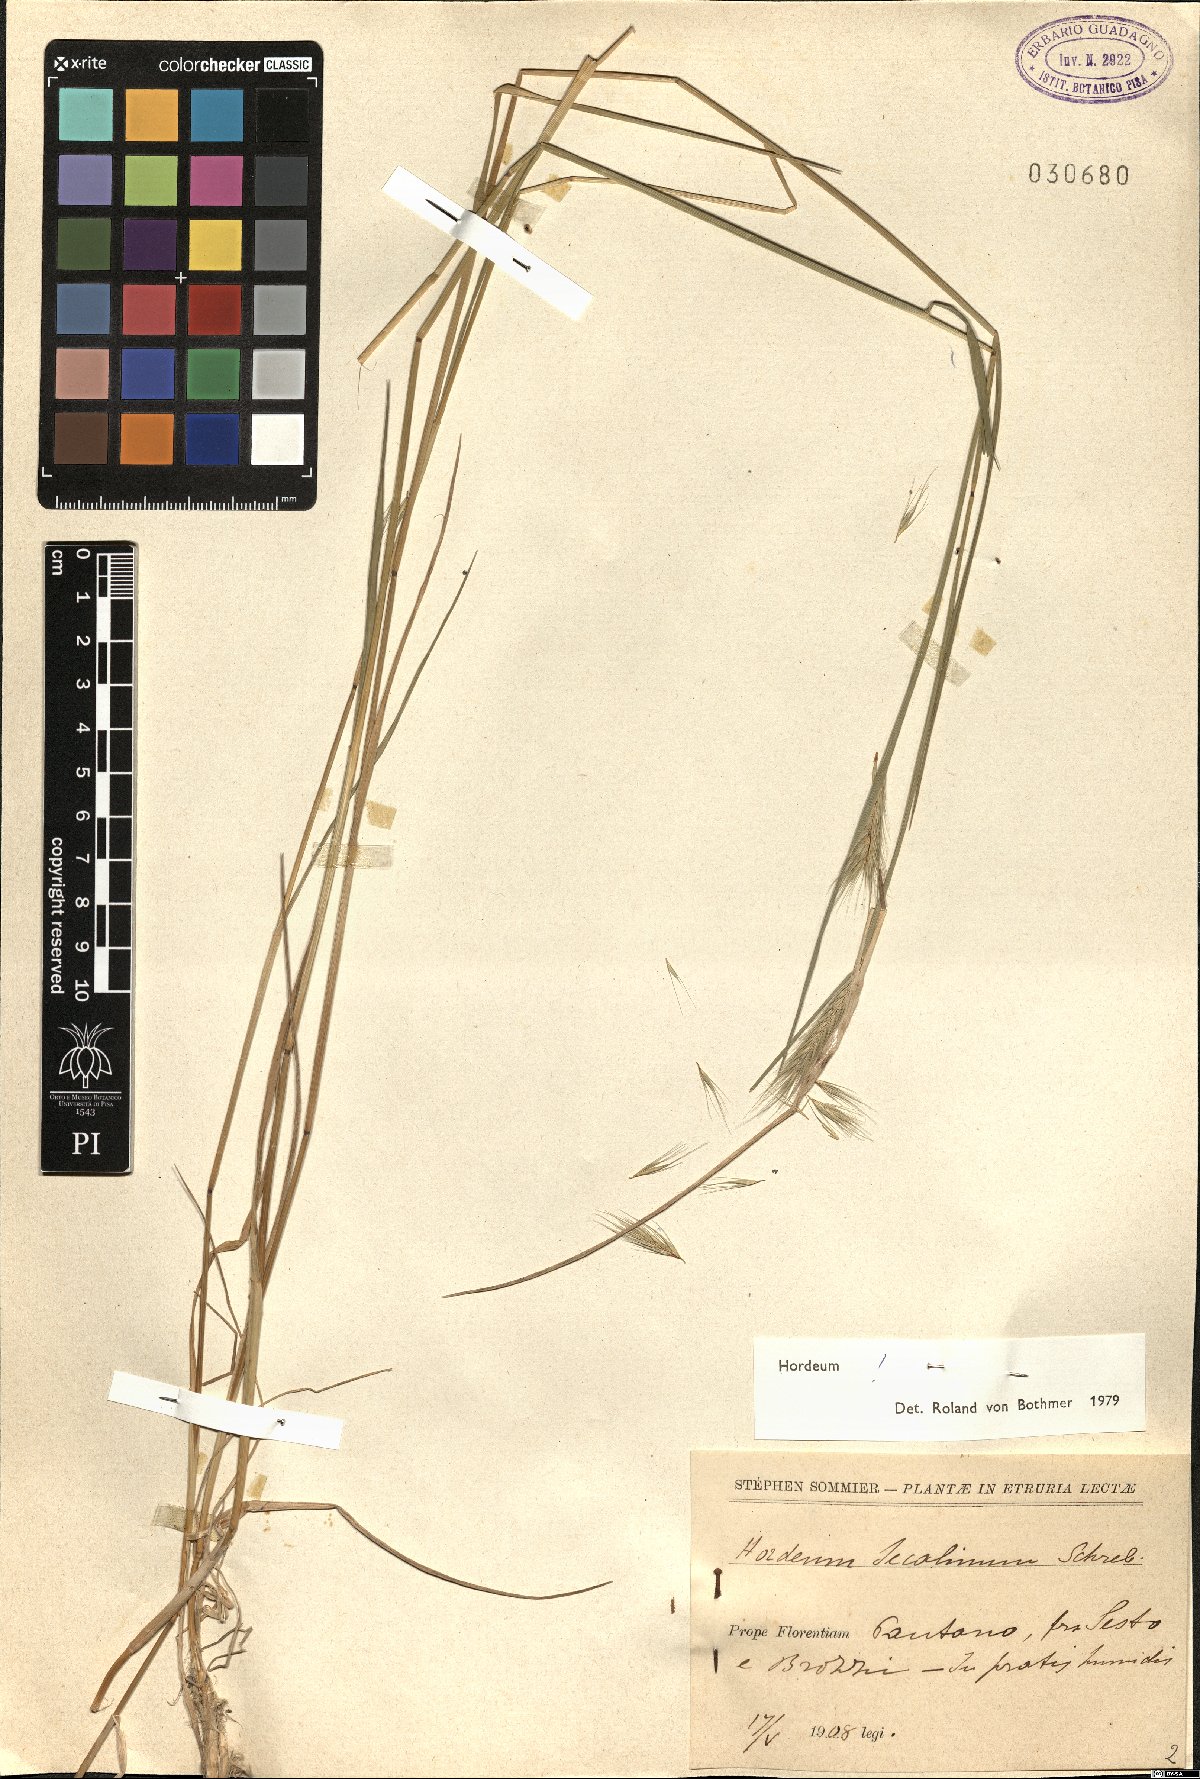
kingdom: Plantae
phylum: Tracheophyta
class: Liliopsida
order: Poales
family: Poaceae
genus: Hordeum
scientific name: Hordeum secalinum
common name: Meadow barley
